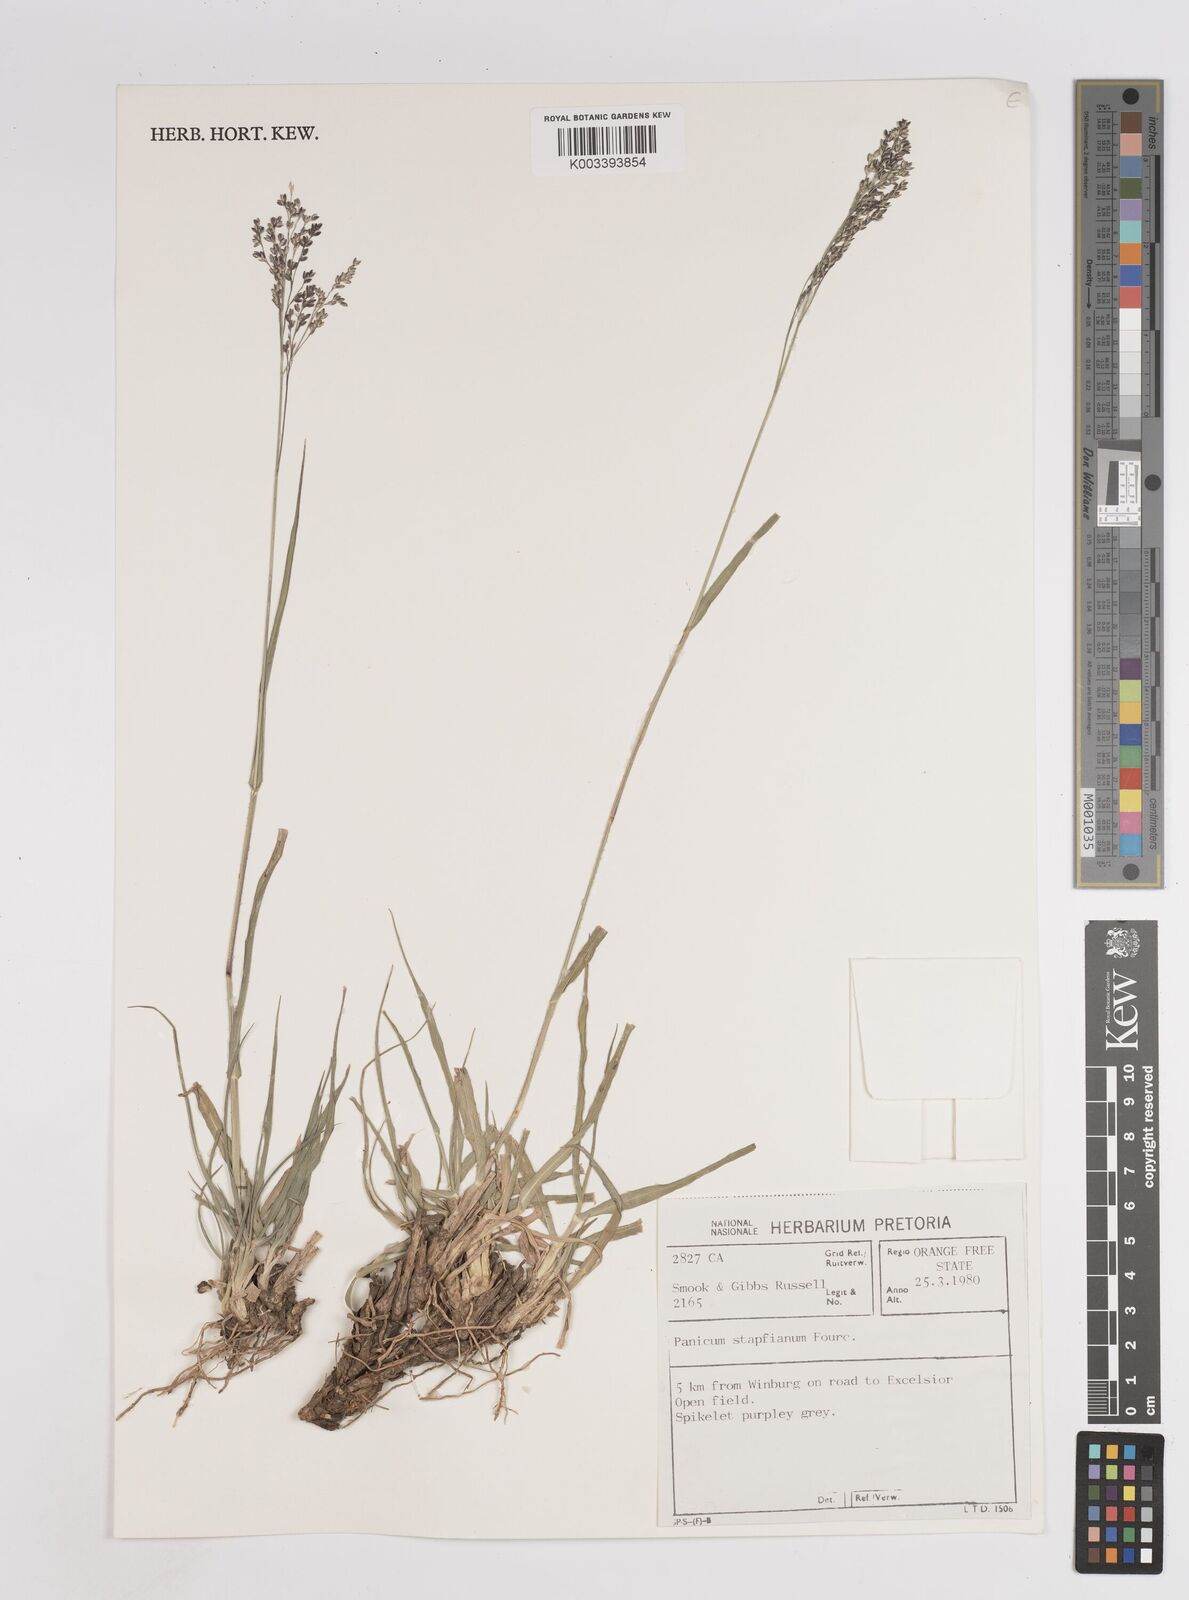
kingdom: Plantae
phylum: Tracheophyta
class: Liliopsida
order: Poales
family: Poaceae
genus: Panicum
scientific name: Panicum stapfianum
